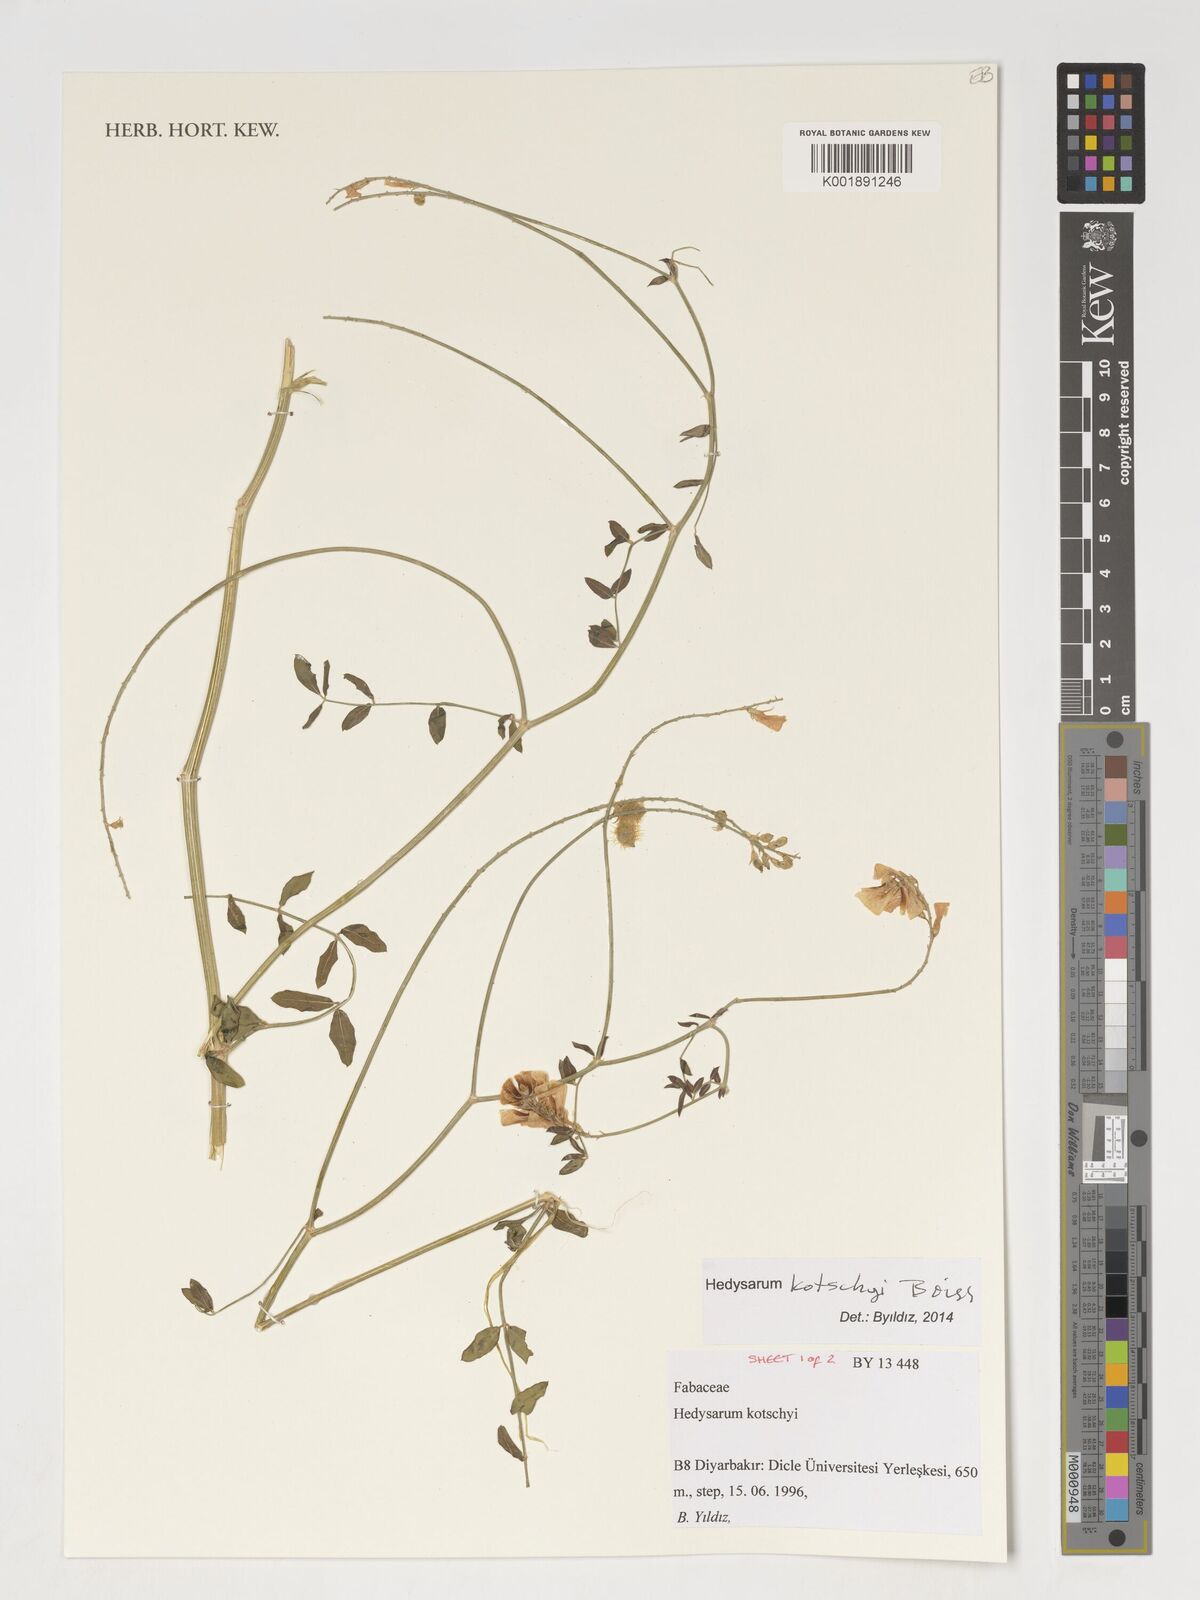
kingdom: Plantae
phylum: Tracheophyta
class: Magnoliopsida
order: Fabales
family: Fabaceae
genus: Hedysarum
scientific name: Hedysarum kotschyi
